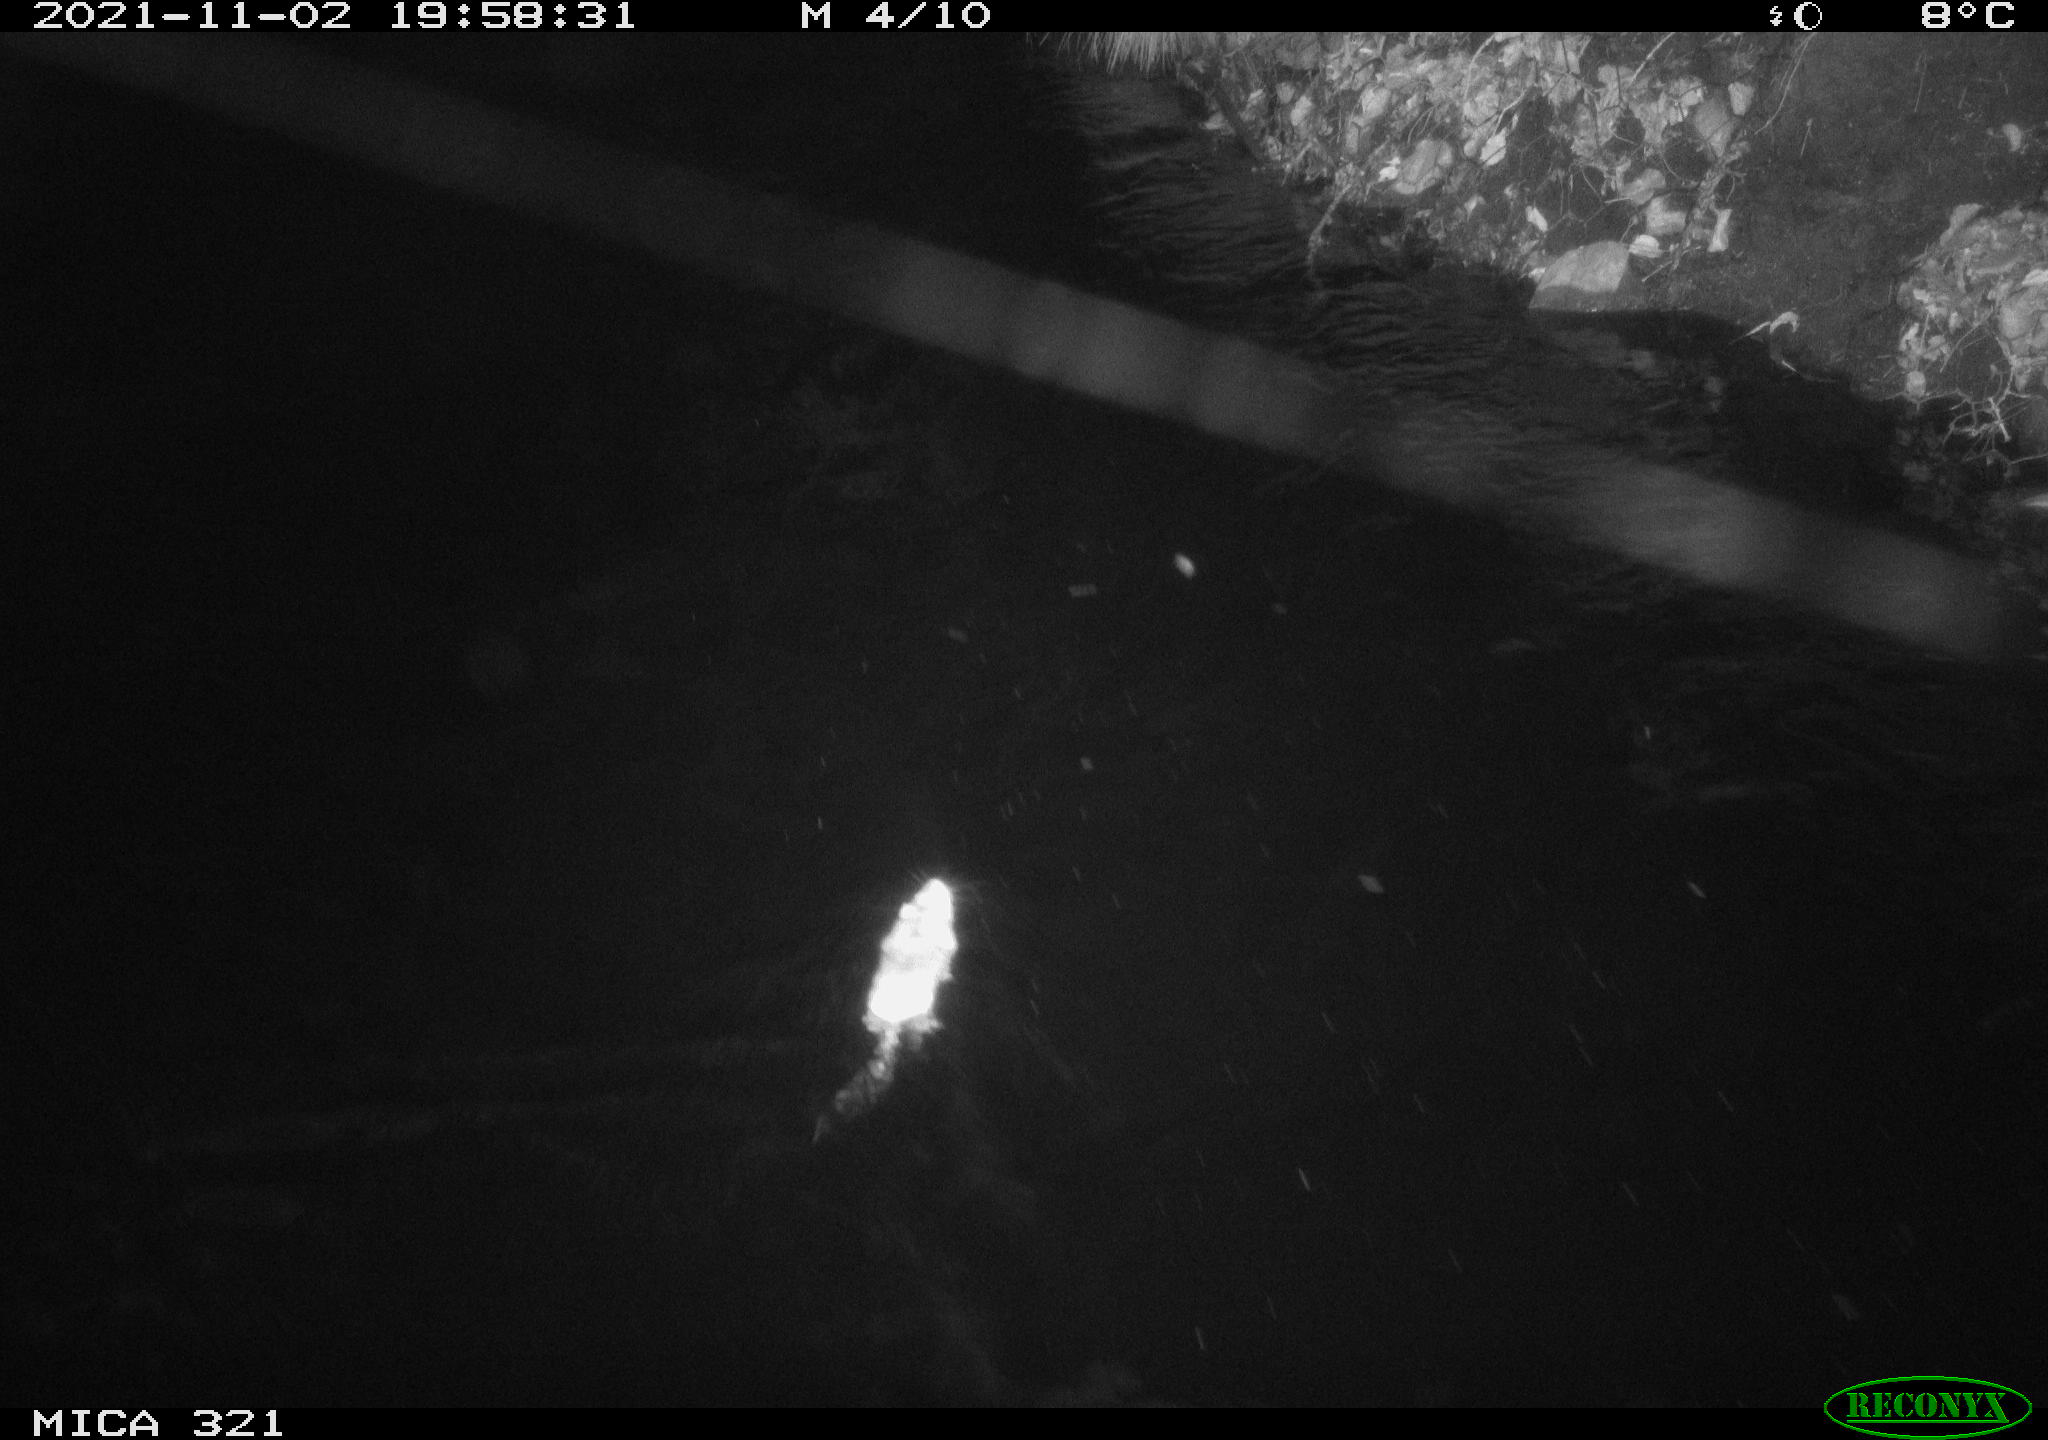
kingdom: Animalia
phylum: Chordata
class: Mammalia
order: Rodentia
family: Muridae
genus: Rattus
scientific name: Rattus norvegicus
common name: Brown rat
